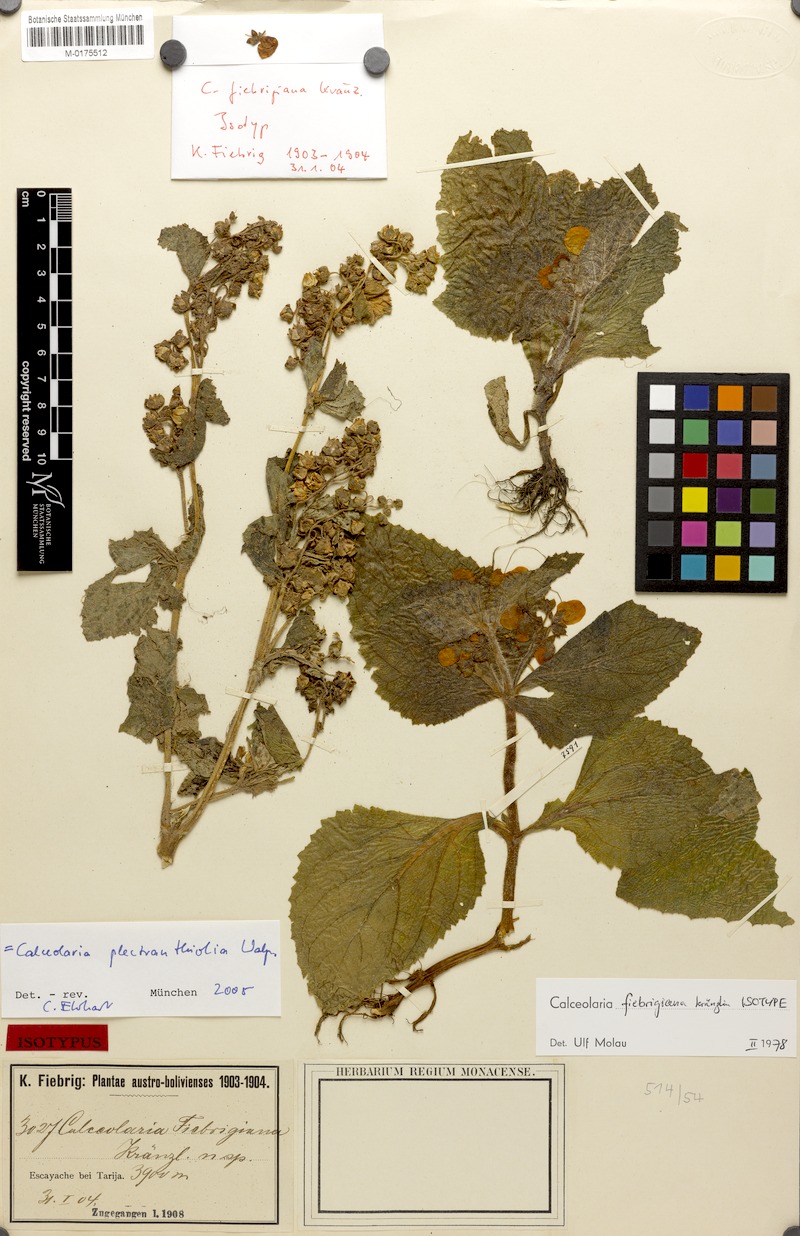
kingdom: Plantae
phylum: Tracheophyta
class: Magnoliopsida
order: Lamiales
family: Calceolariaceae
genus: Calceolaria
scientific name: Calceolaria plectranthifolia
